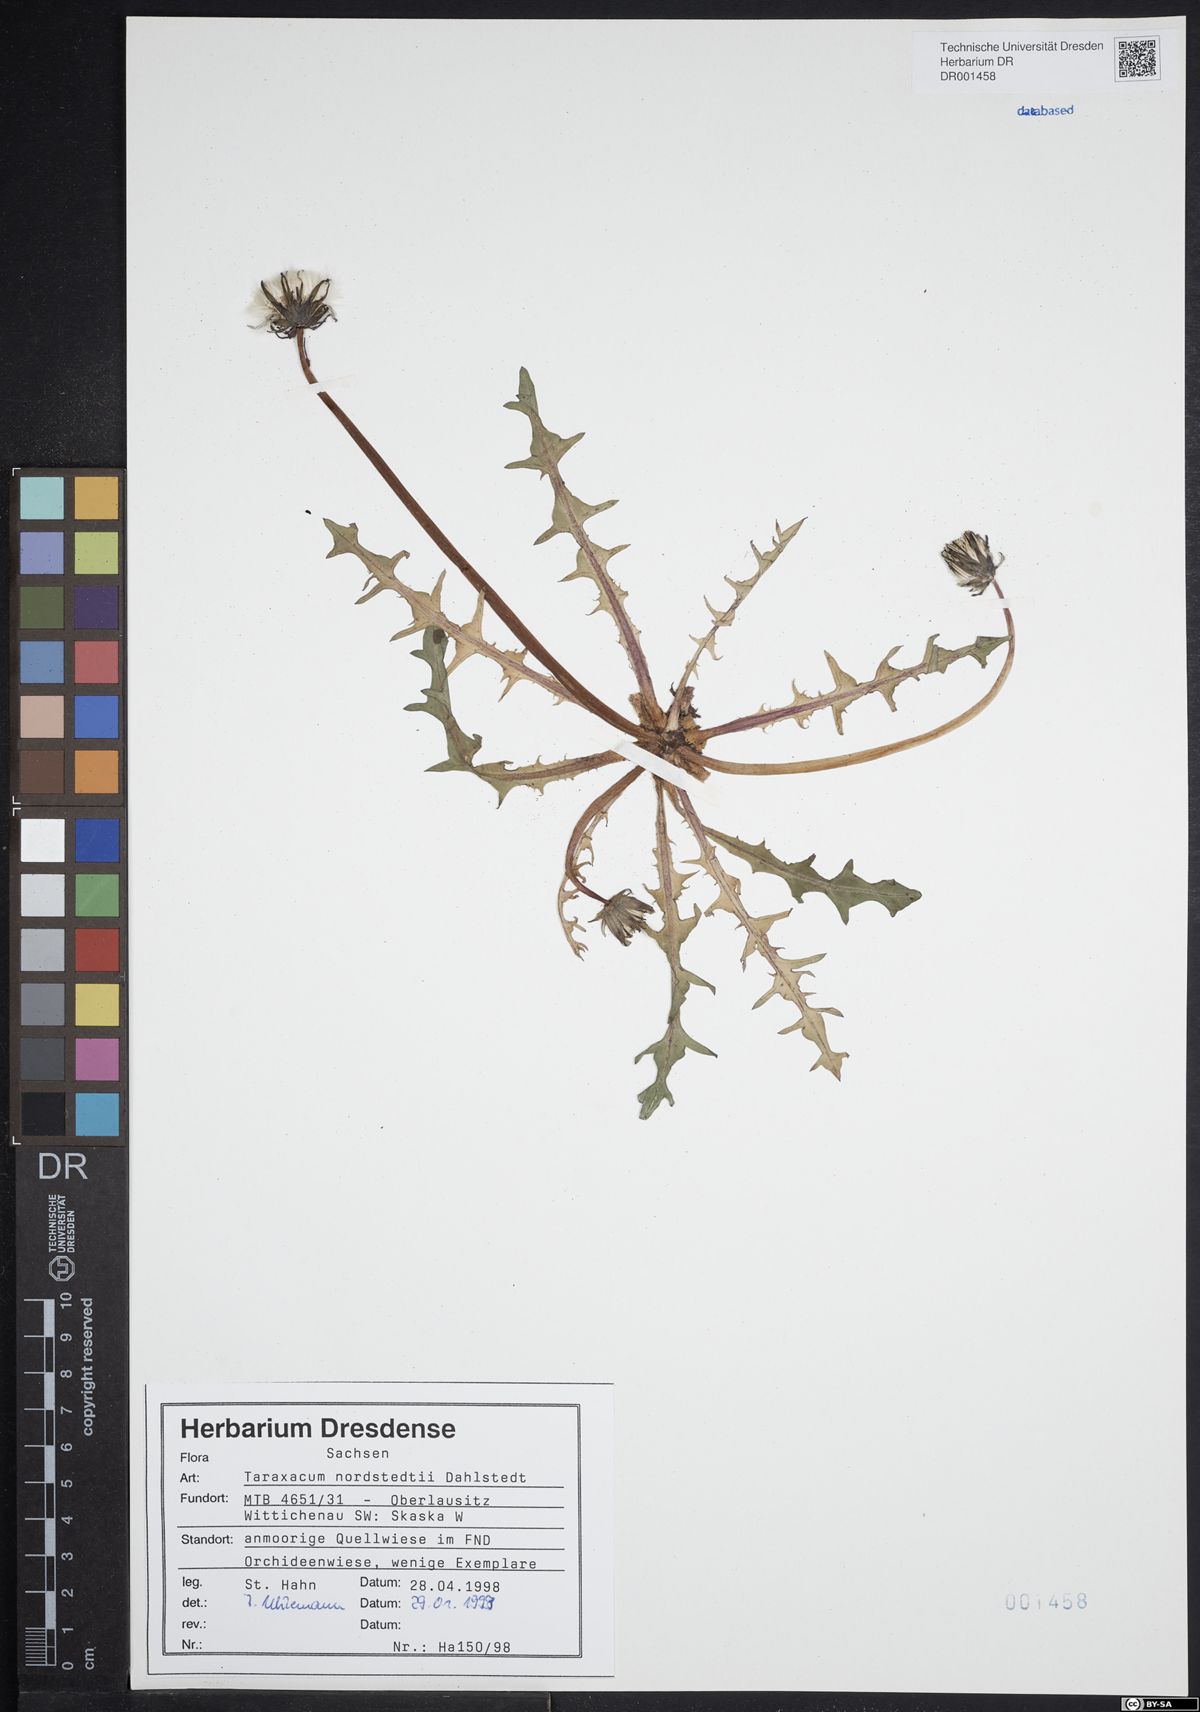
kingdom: Plantae
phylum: Tracheophyta
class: Magnoliopsida
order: Asterales
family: Asteraceae
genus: Taraxacum
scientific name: Taraxacum nordstedtii
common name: Nordstedt's dandelion
